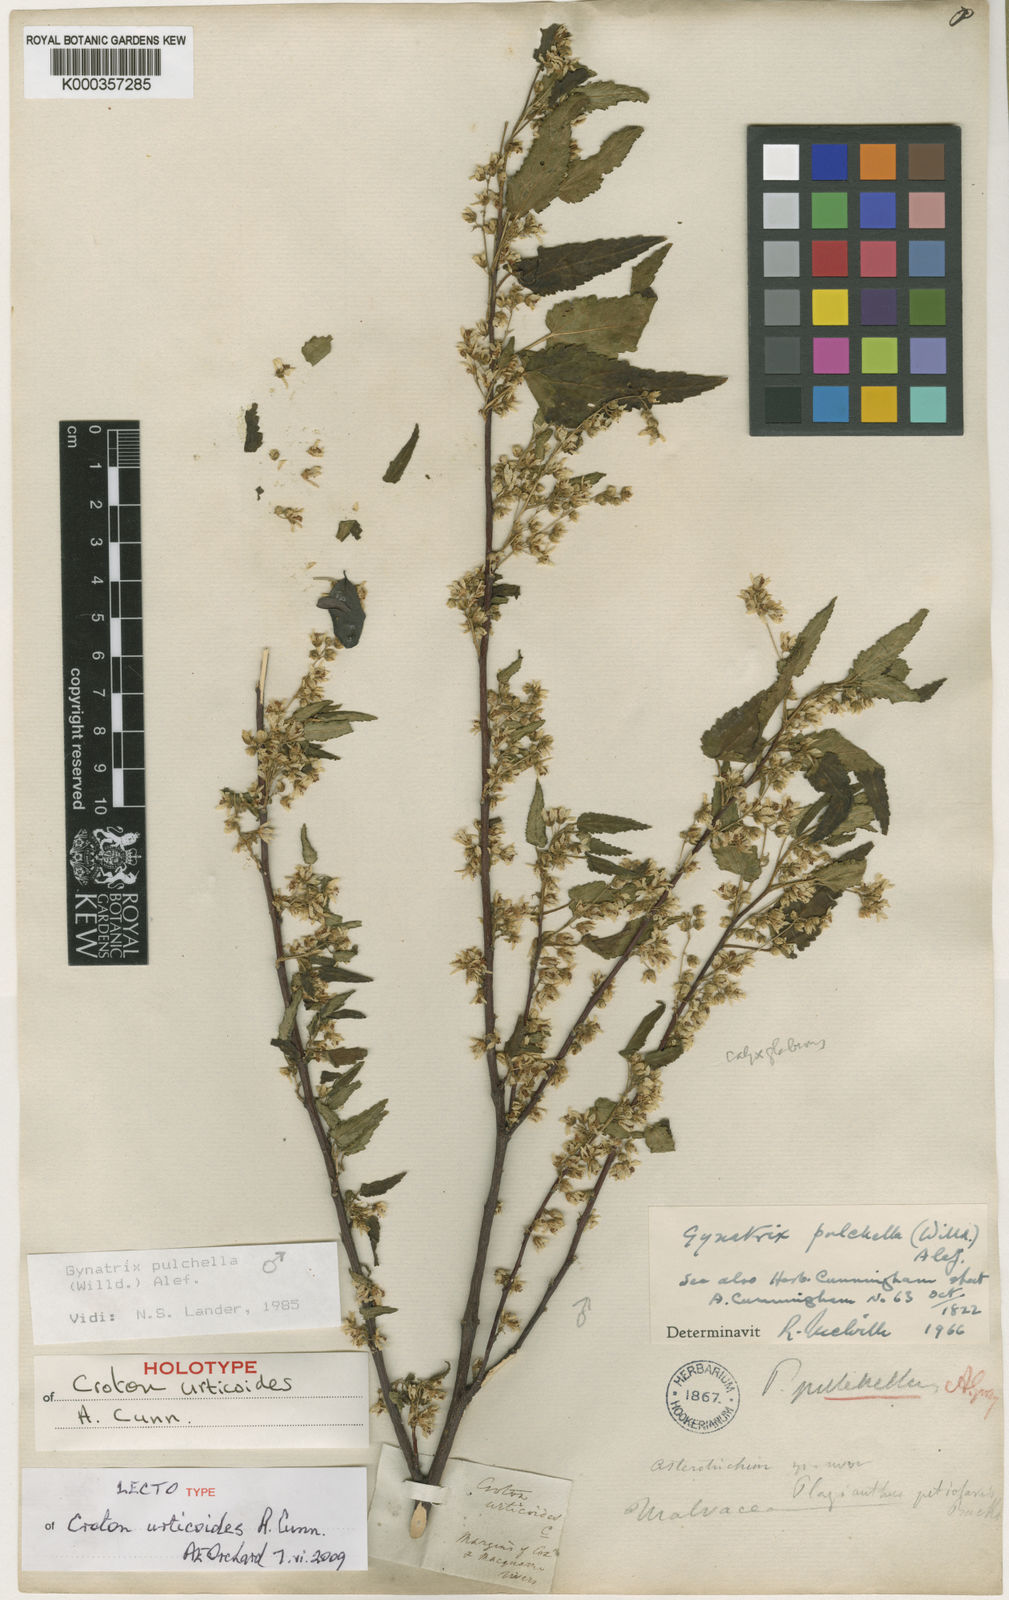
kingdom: Plantae
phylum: Tracheophyta
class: Magnoliopsida
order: Malvales
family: Malvaceae
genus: Gynatrix
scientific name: Gynatrix pulchella
